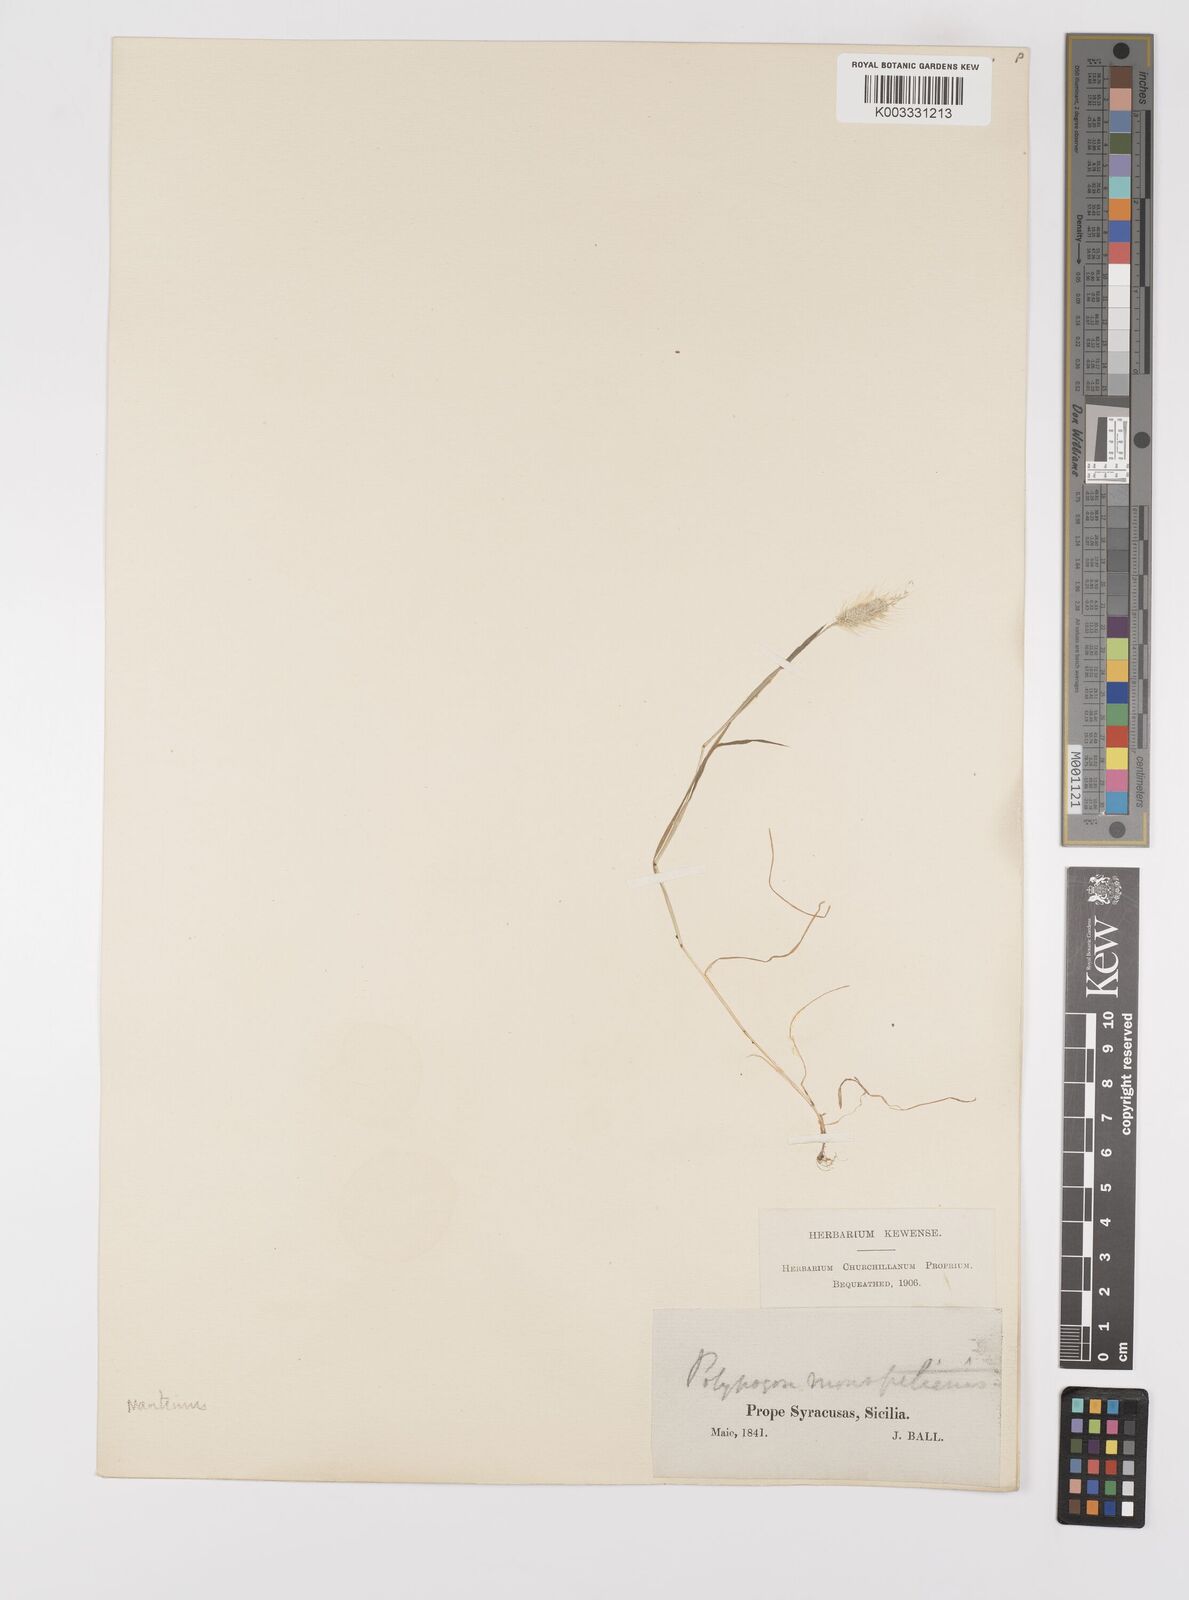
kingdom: Plantae
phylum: Tracheophyta
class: Liliopsida
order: Poales
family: Poaceae
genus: Polypogon
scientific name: Polypogon maritimus
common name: Mediterranean rabbitsfoot grass
